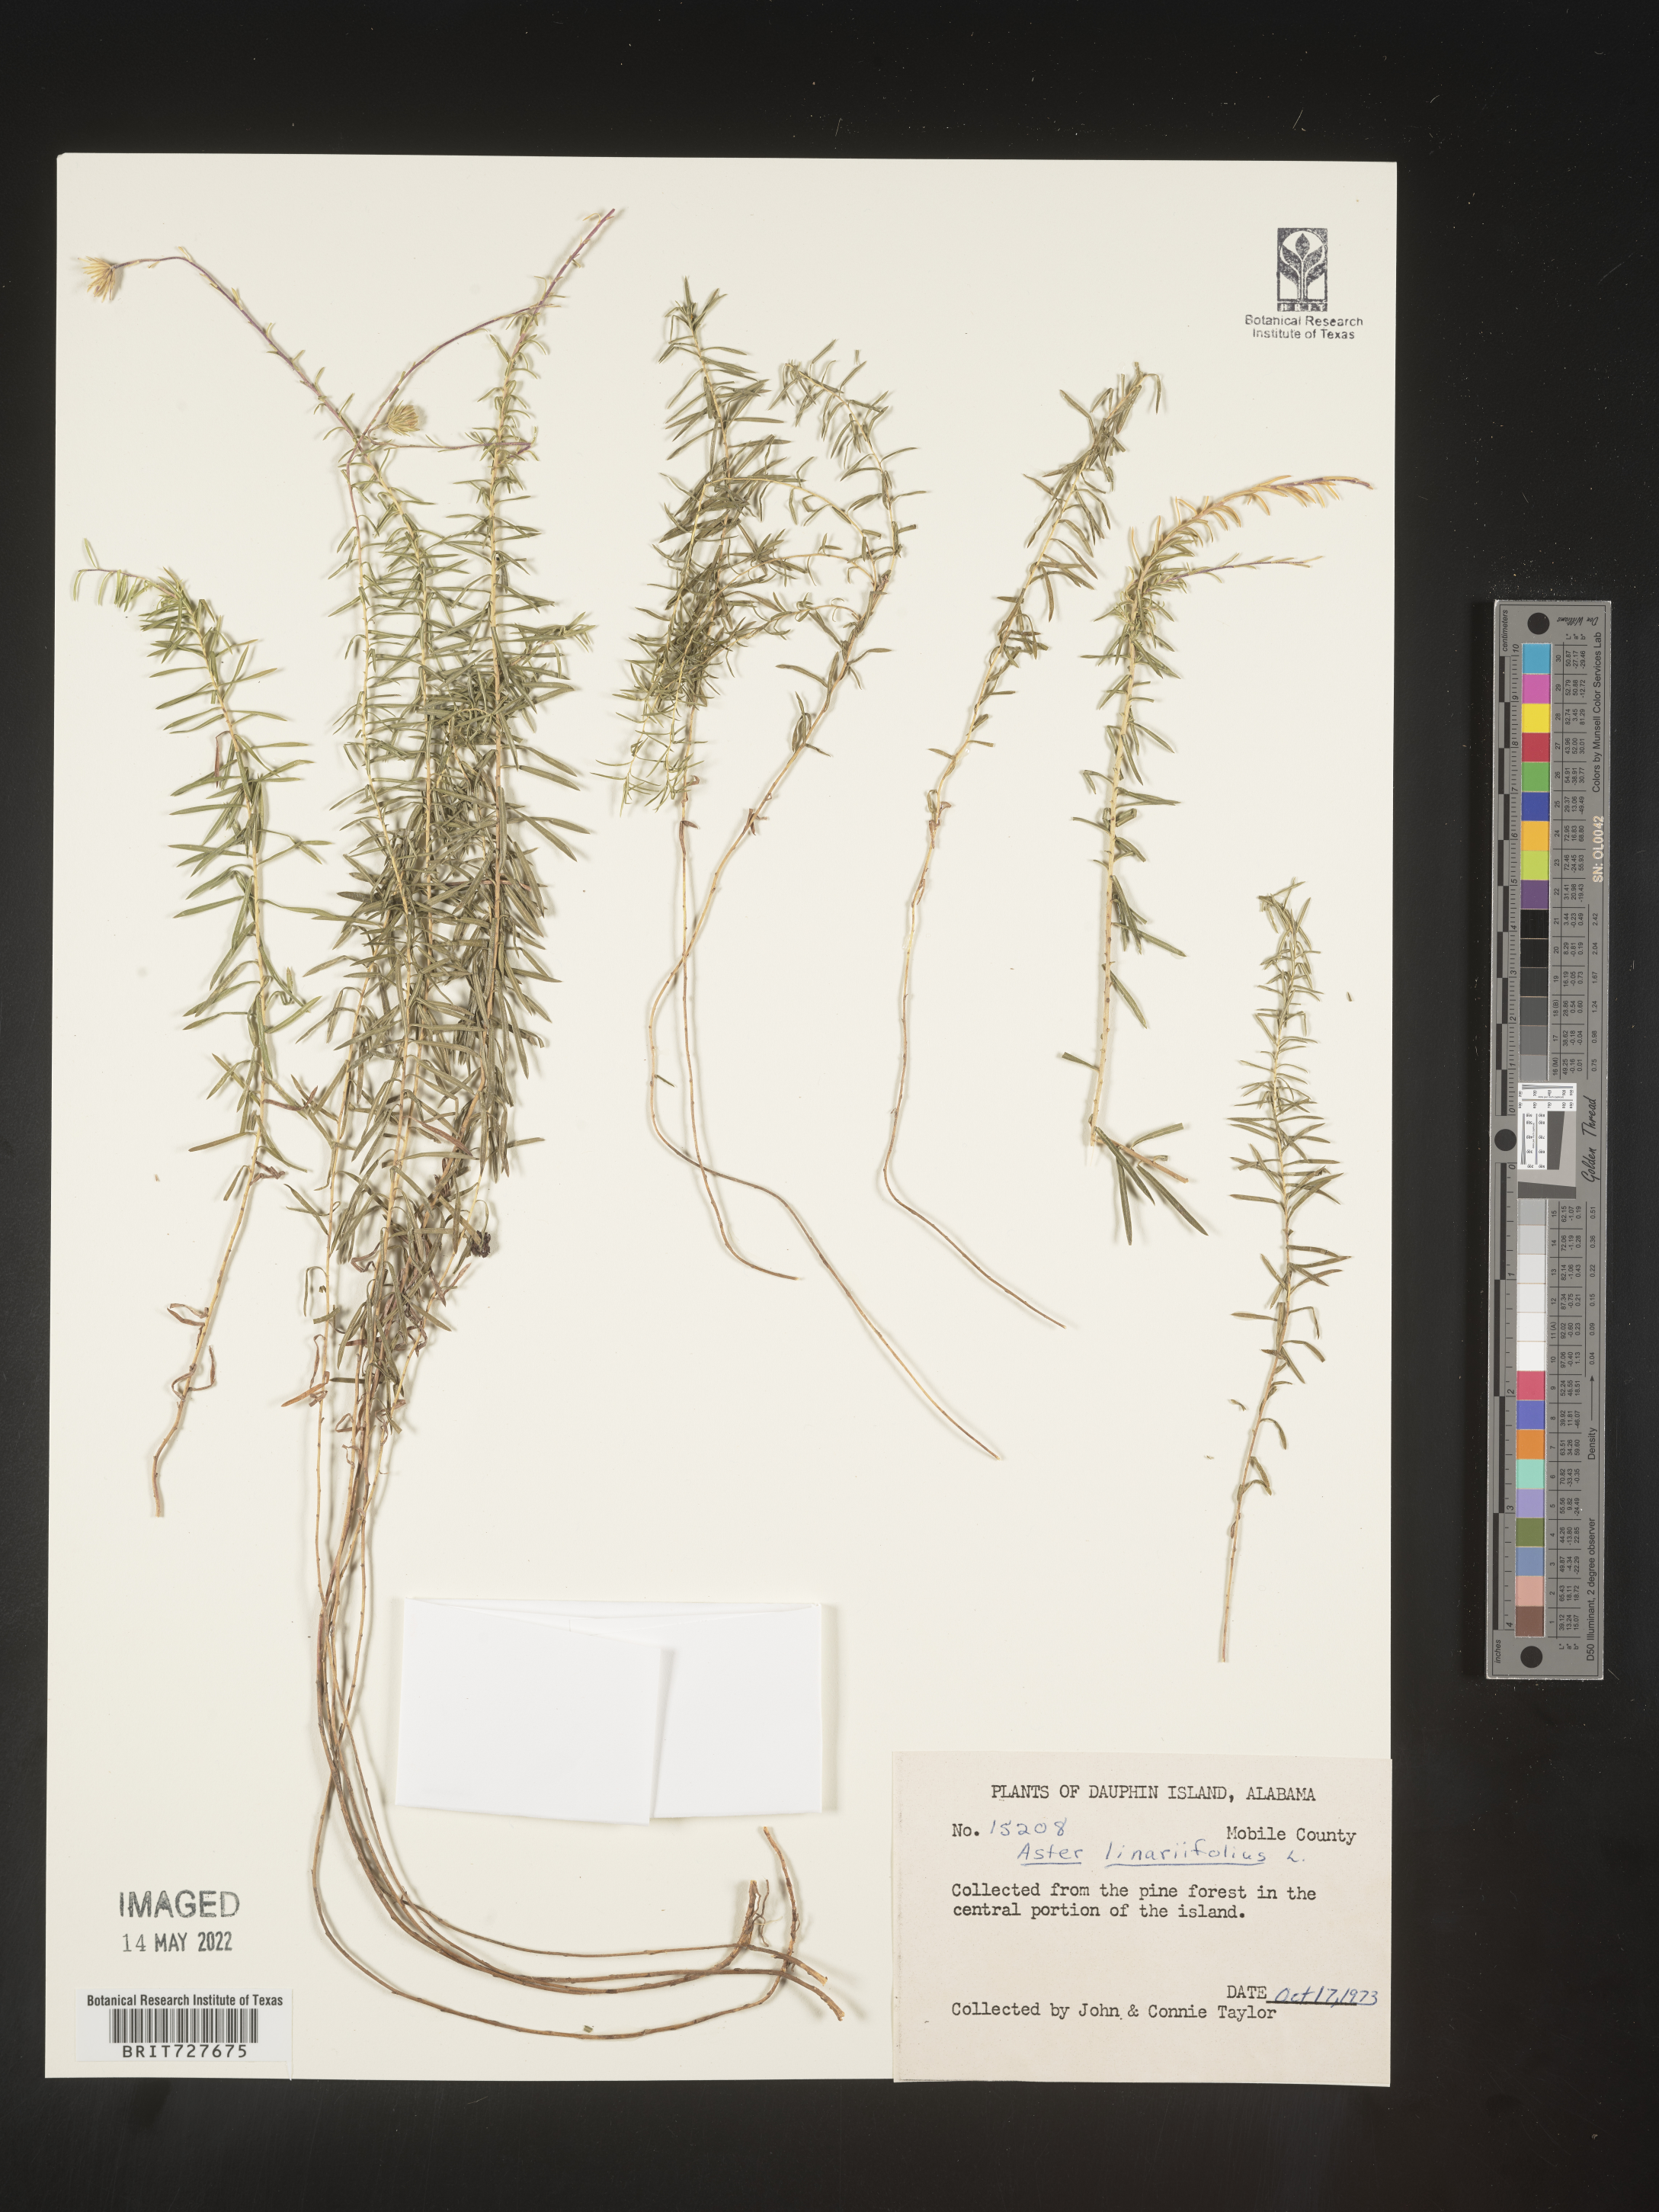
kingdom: Plantae
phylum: Tracheophyta
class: Magnoliopsida
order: Asterales
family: Asteraceae
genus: Ionactis
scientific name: Ionactis linariifolia
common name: Flax-leaf aster
